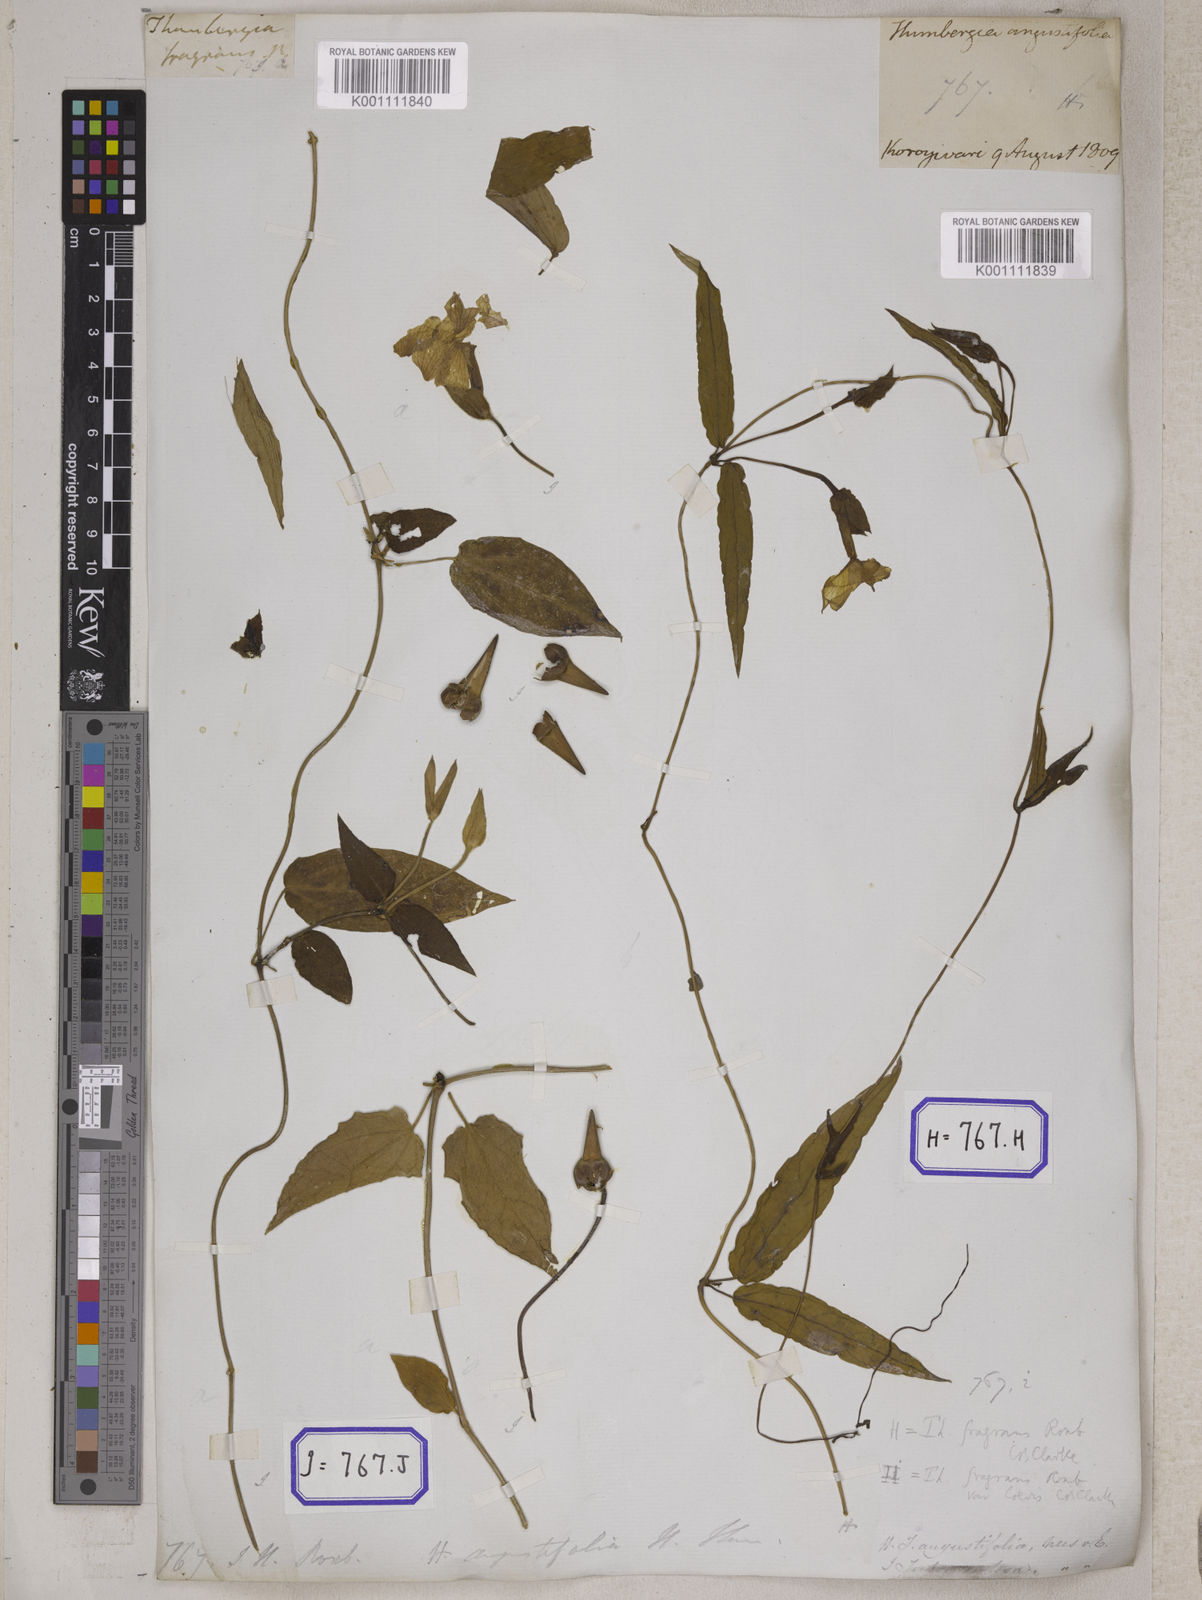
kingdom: Plantae
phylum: Tracheophyta
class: Magnoliopsida
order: Lamiales
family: Acanthaceae
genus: Thunbergia
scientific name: Thunbergia fragrans
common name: Whitelady
